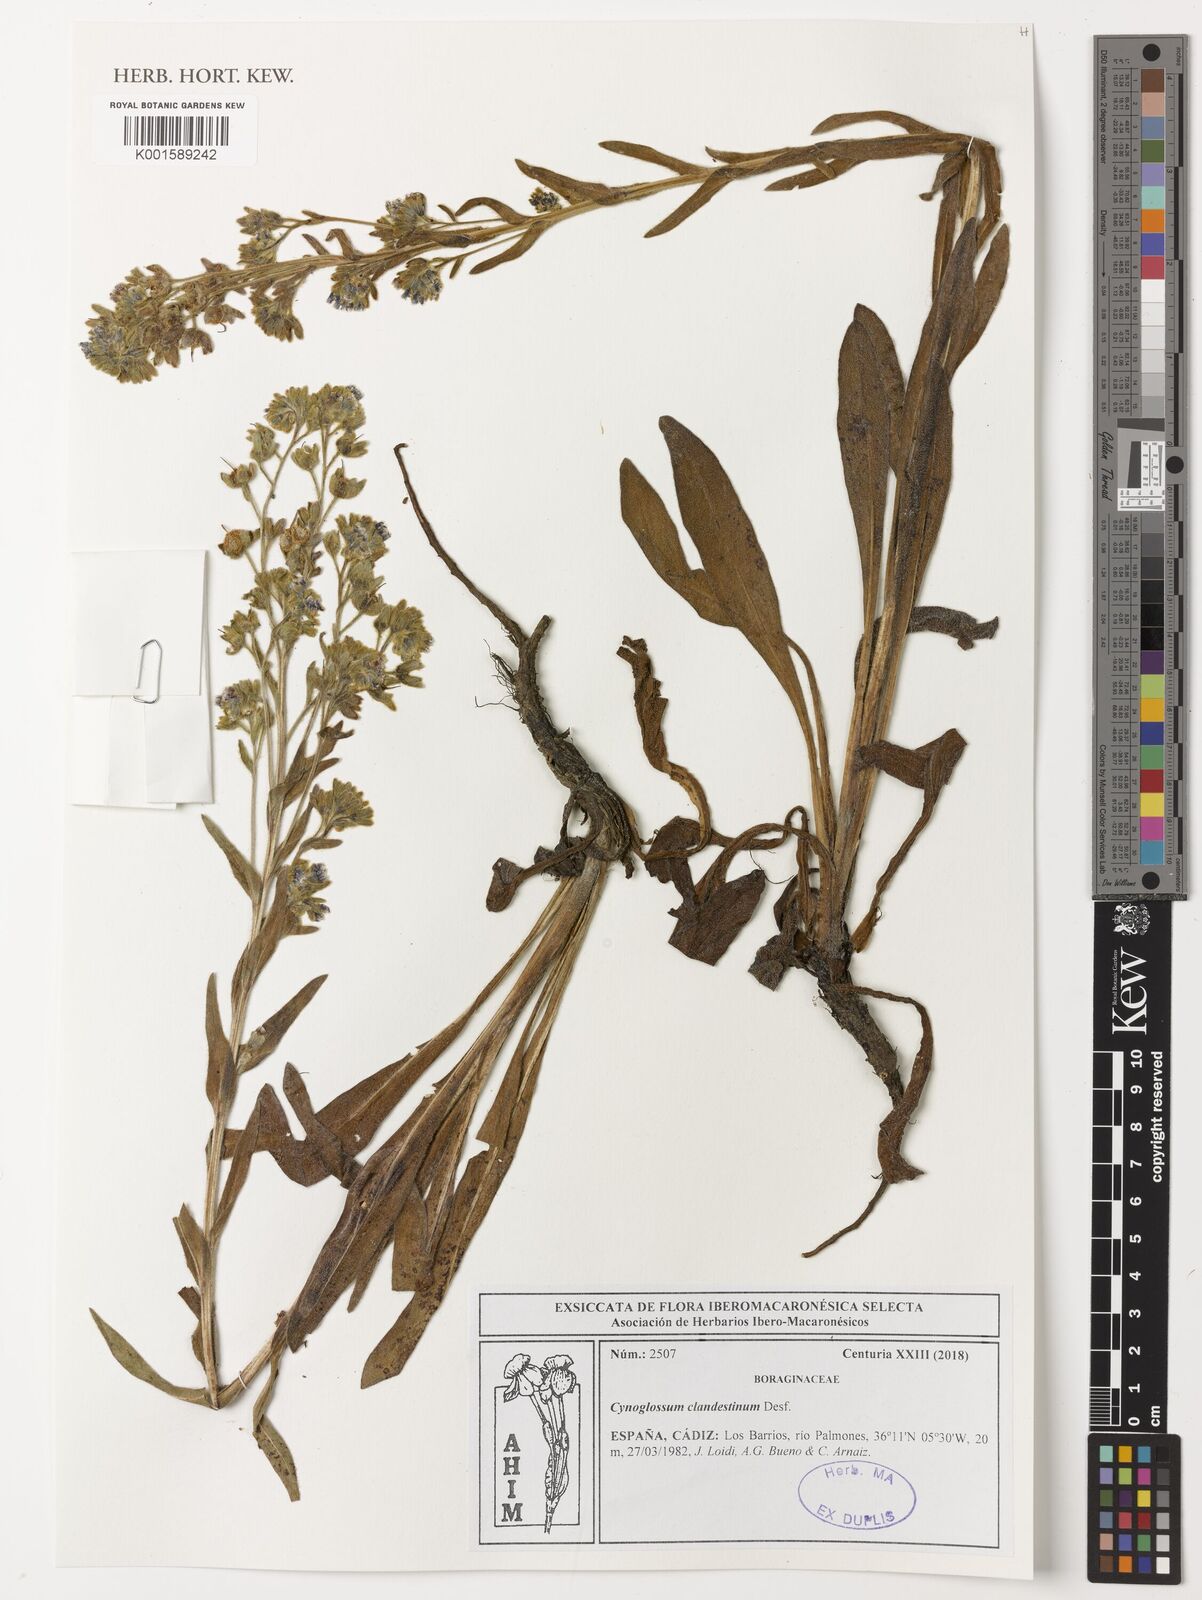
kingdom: Plantae
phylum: Tracheophyta
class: Magnoliopsida
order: Boraginales
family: Boraginaceae
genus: Cynoglossum
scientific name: Cynoglossum clandestinum
